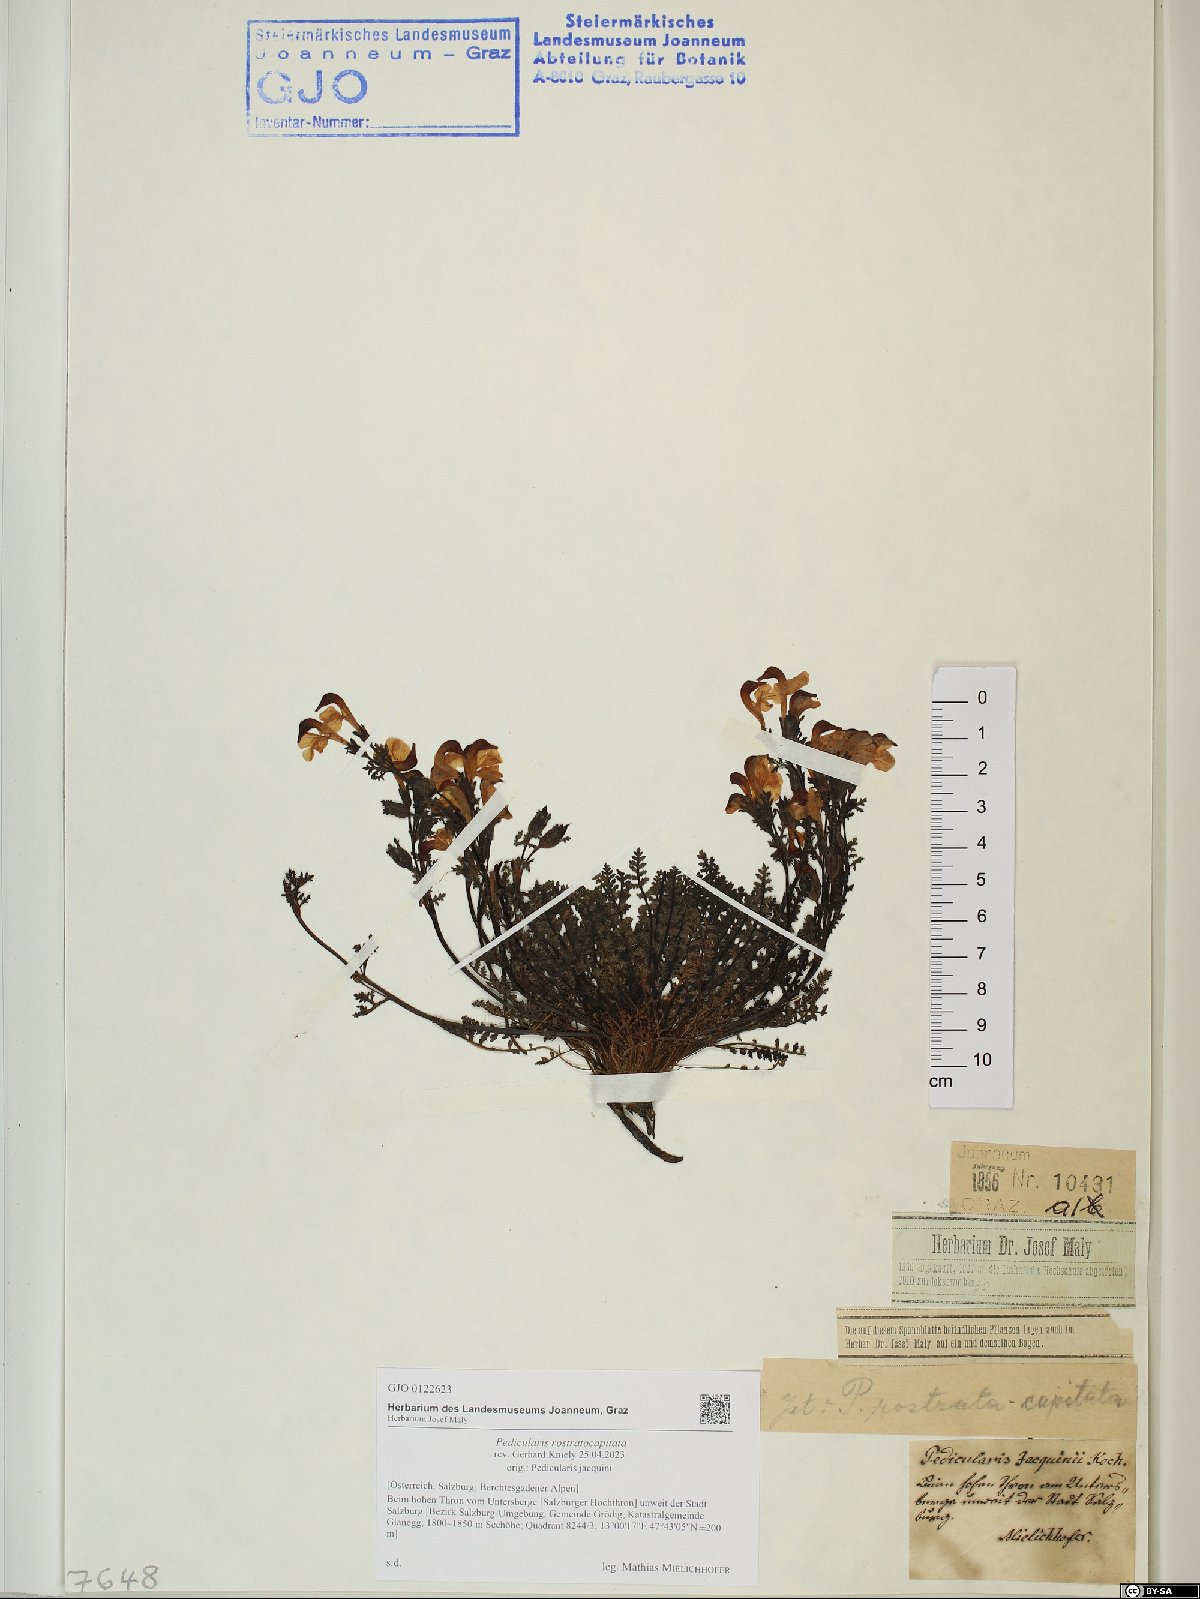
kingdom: Plantae
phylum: Tracheophyta
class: Magnoliopsida
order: Lamiales
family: Orobanchaceae
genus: Pedicularis
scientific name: Pedicularis rostratocapitata
